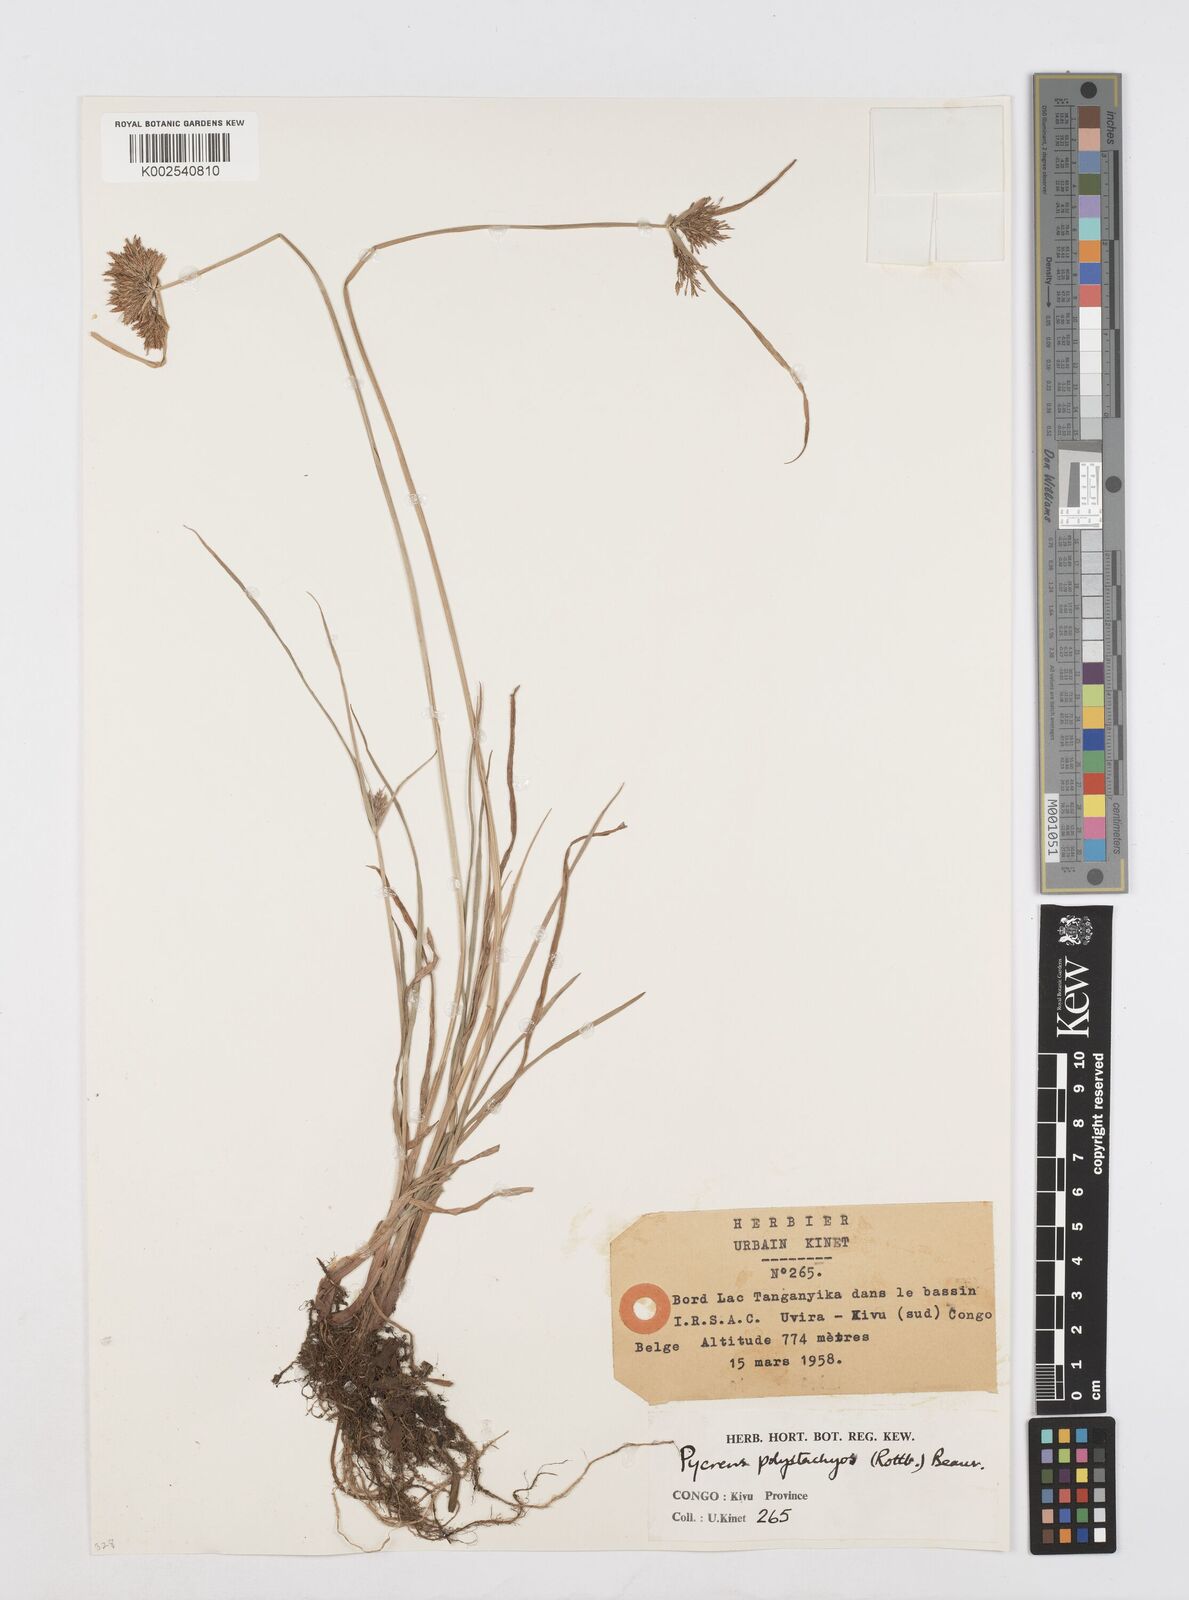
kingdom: Plantae
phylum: Tracheophyta
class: Liliopsida
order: Poales
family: Cyperaceae
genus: Cyperus
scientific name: Cyperus polystachyos
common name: Bunchy flat sedge
